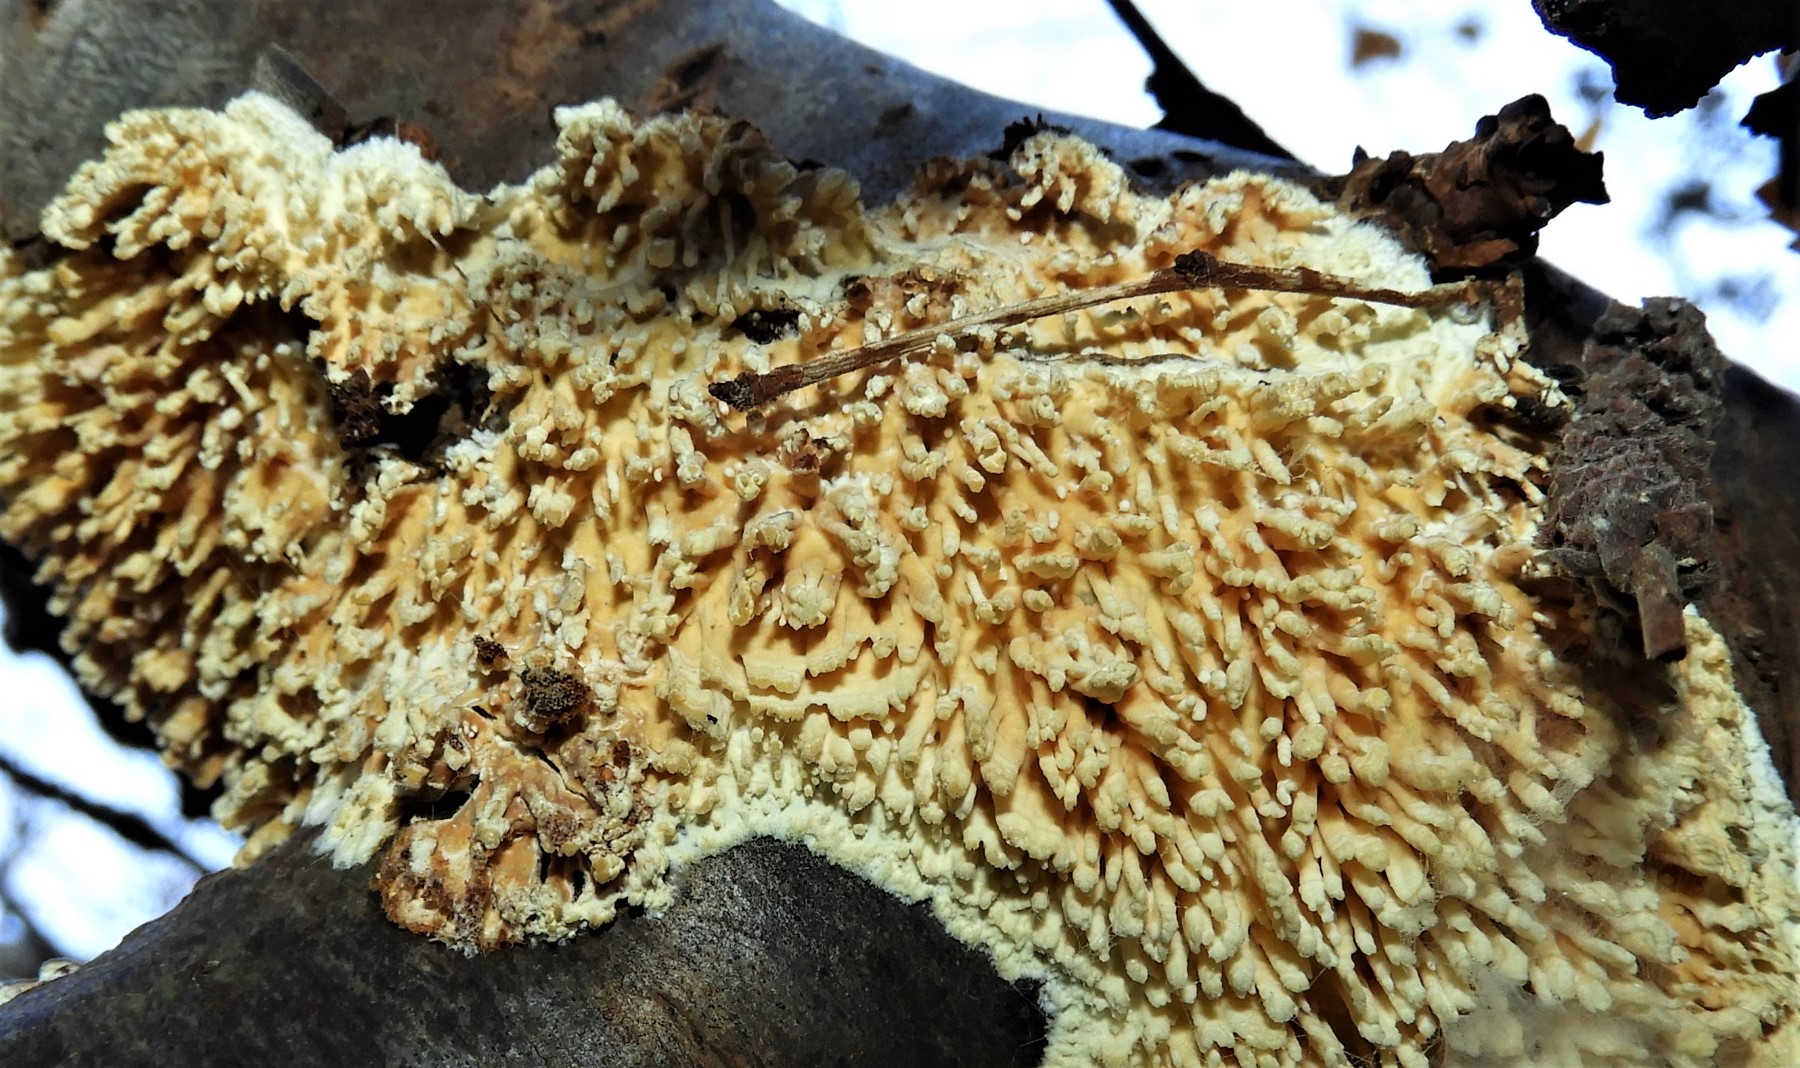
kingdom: Fungi
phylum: Basidiomycota
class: Agaricomycetes
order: Hymenochaetales
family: Schizoporaceae
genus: Xylodon
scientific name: Xylodon radula
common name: grovtandet kalkskind
